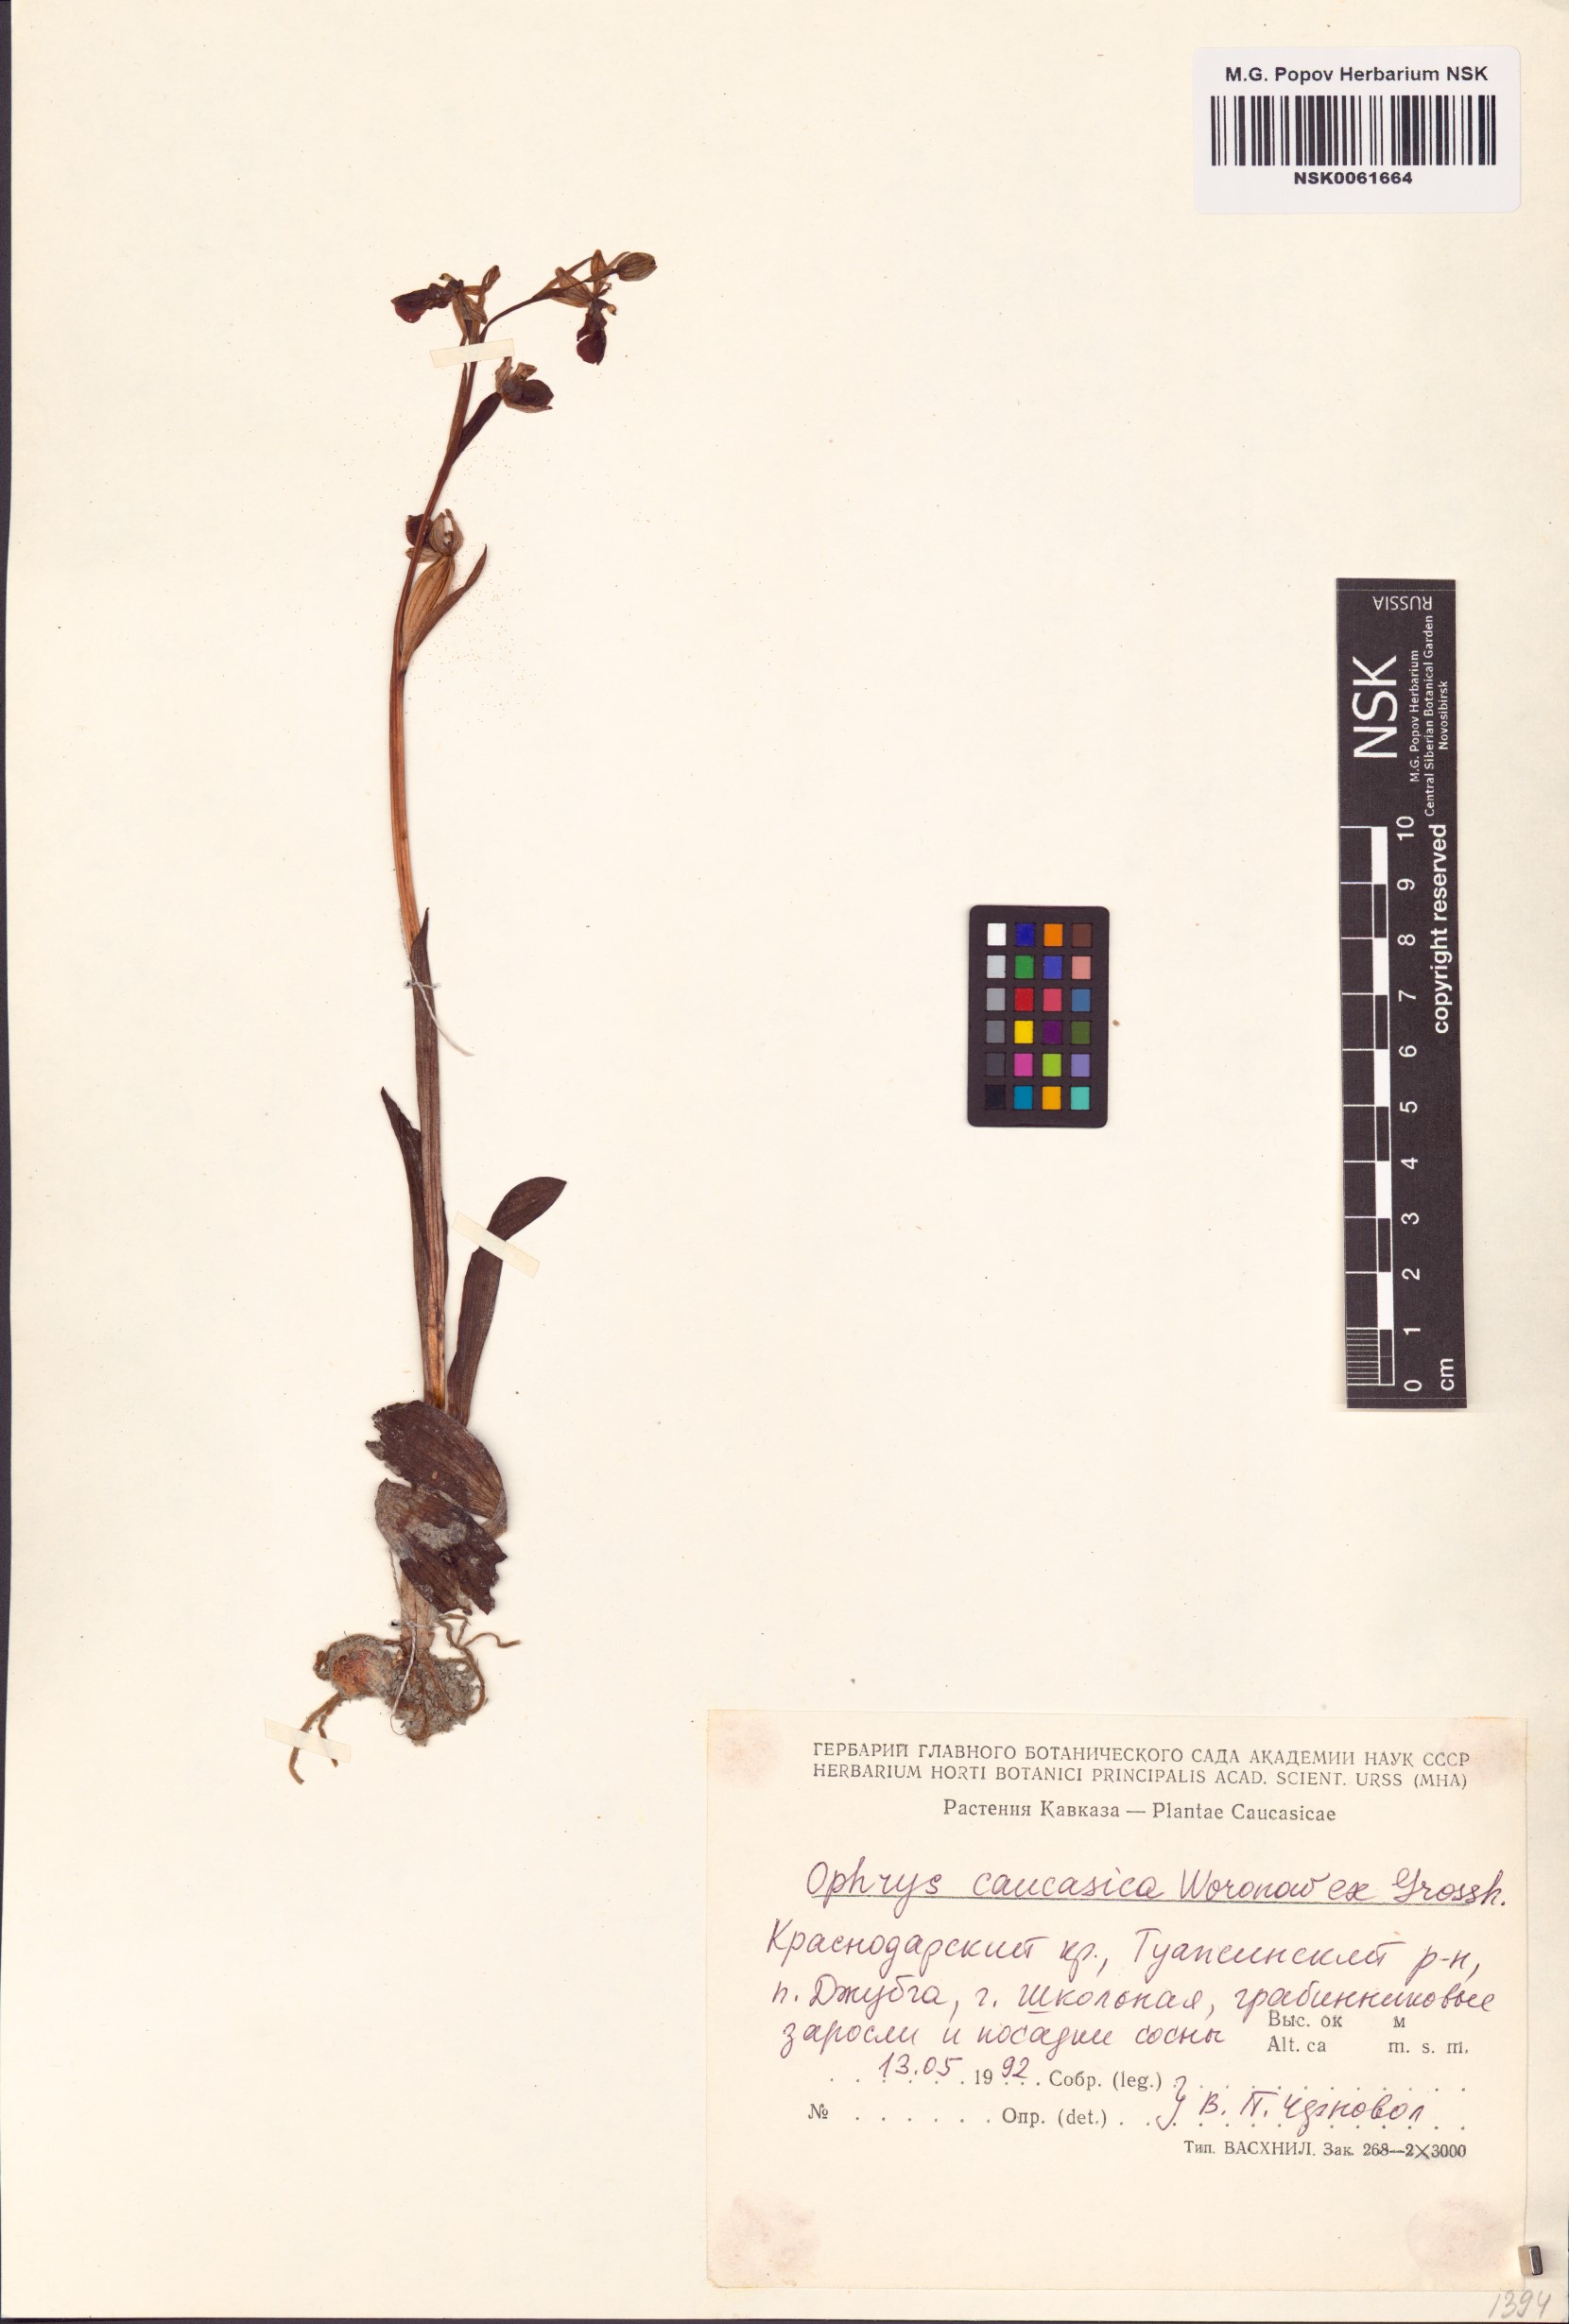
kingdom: Plantae
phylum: Tracheophyta
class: Liliopsida
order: Asparagales
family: Orchidaceae
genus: Ophrys
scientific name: Ophrys sphegodes
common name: Early spider-orchid
